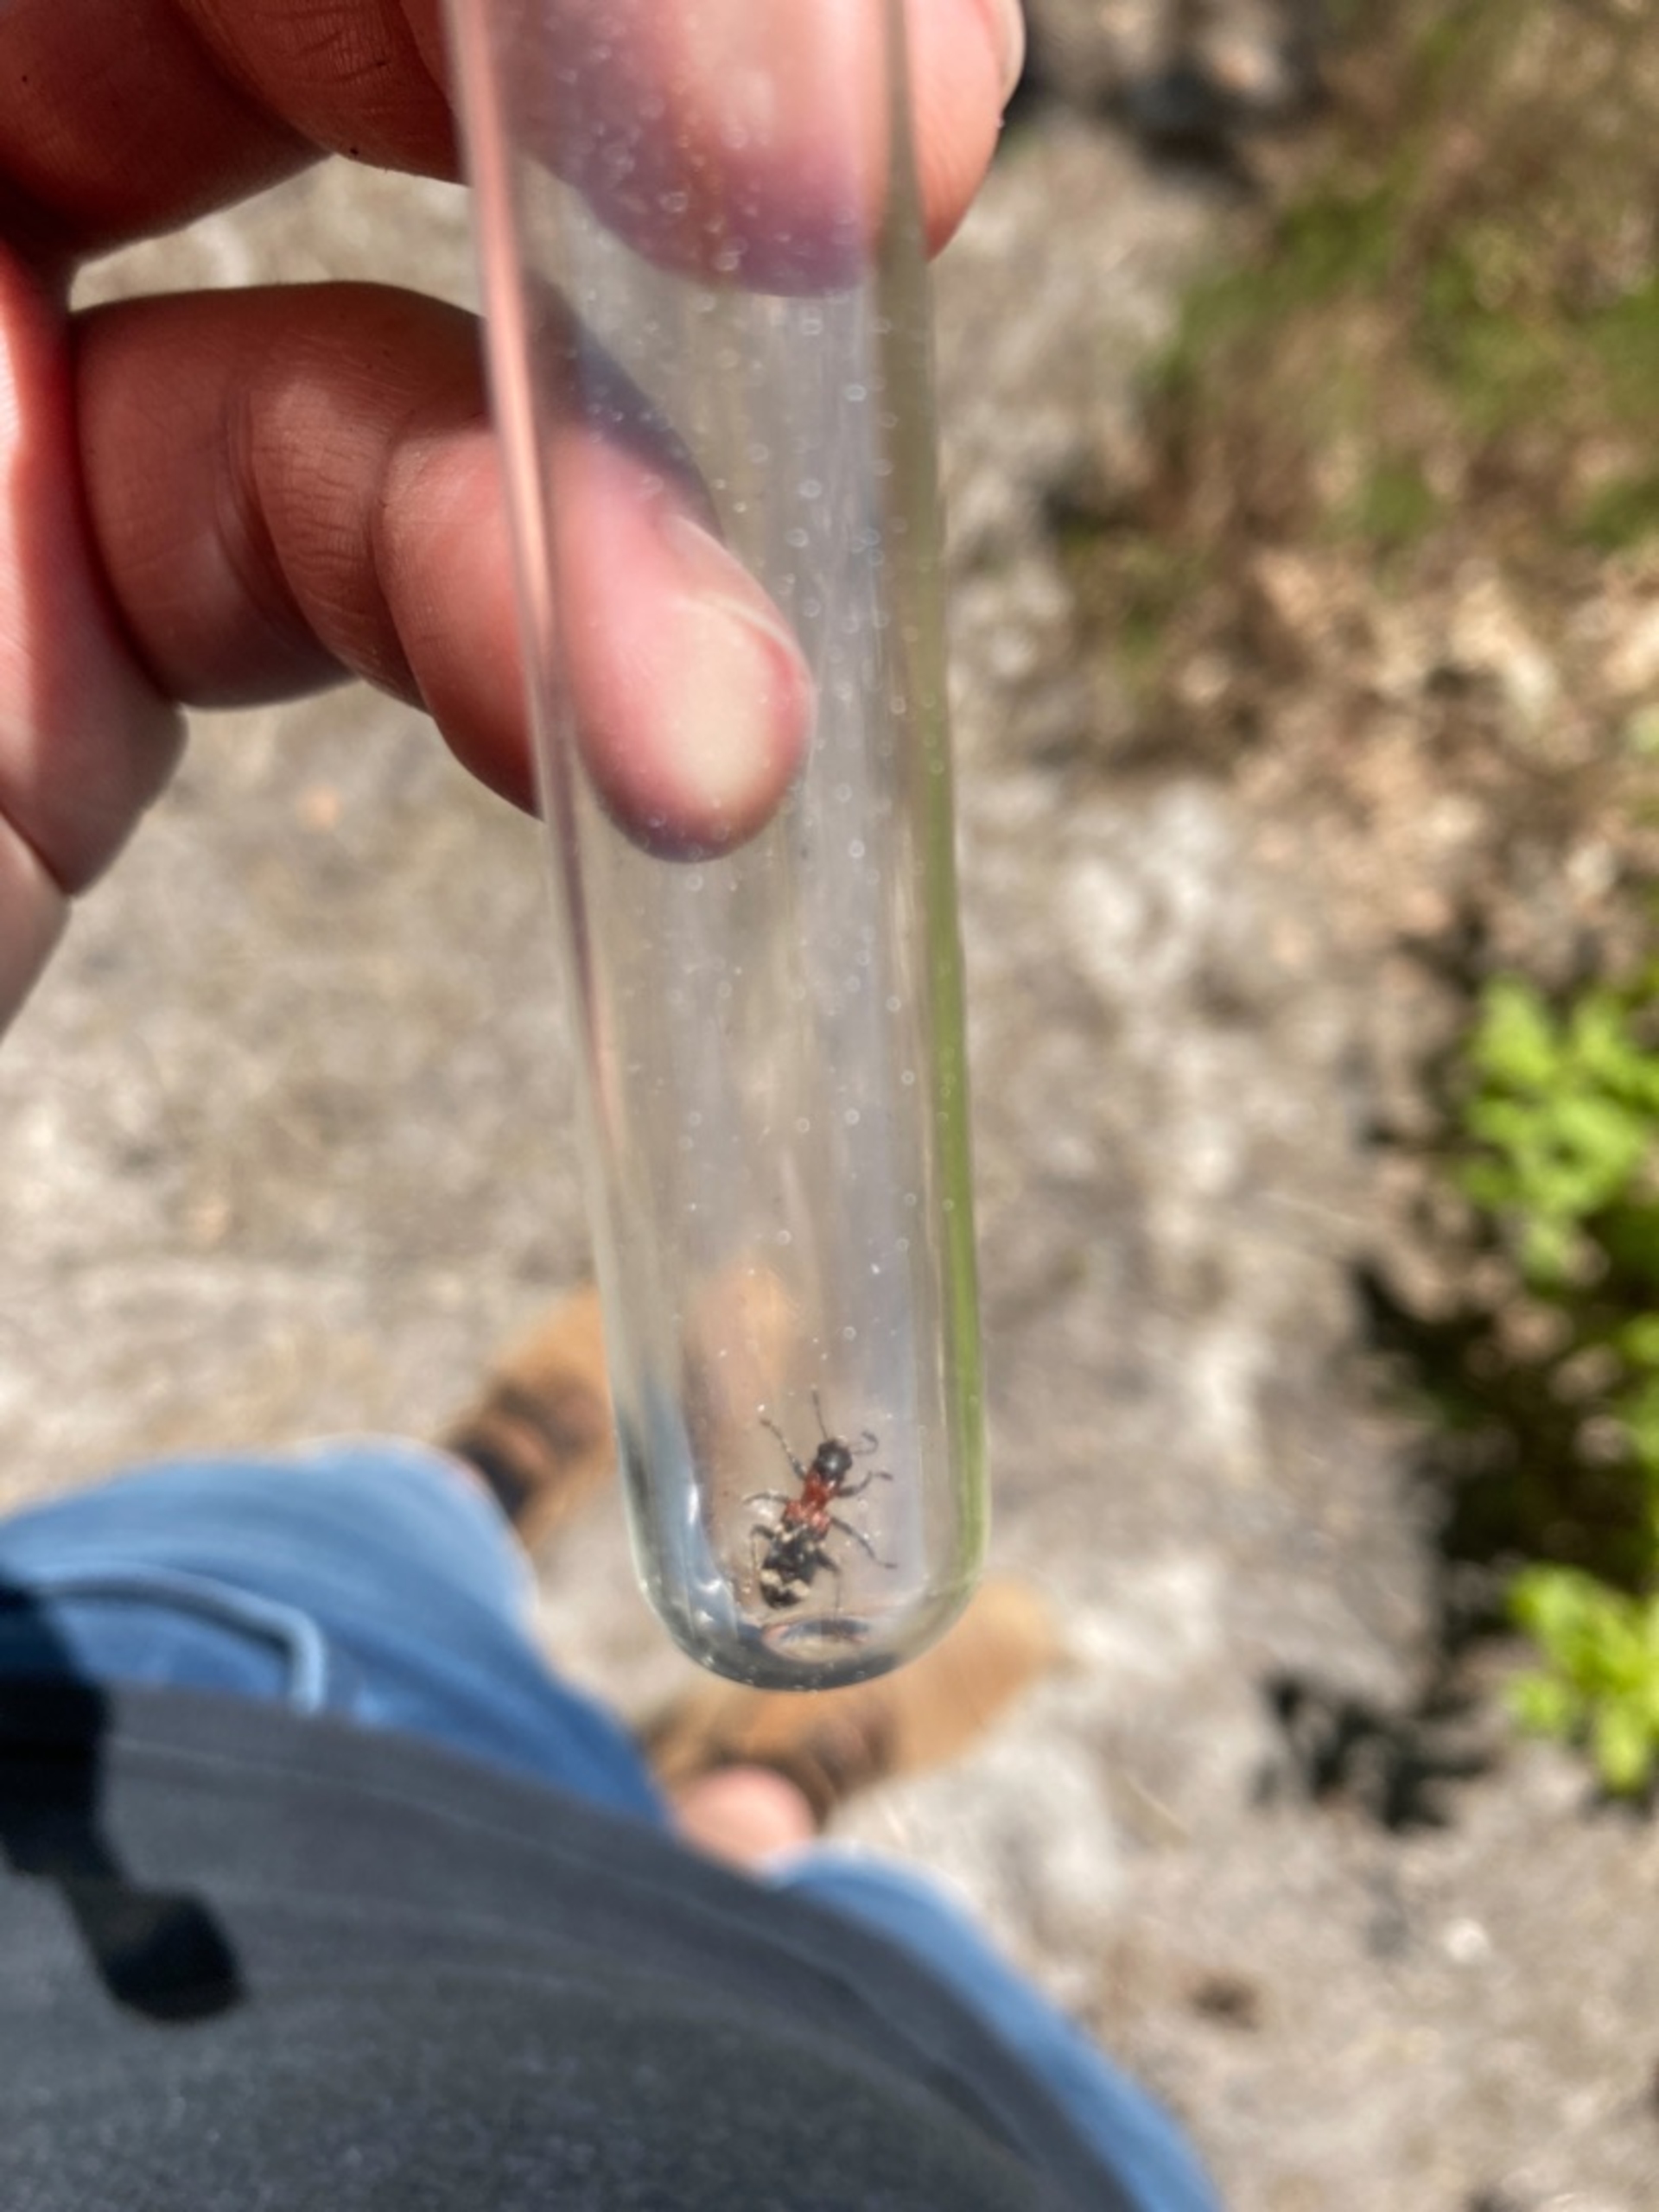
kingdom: Animalia
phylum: Arthropoda
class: Insecta
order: Coleoptera
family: Cleridae
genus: Thanasimus
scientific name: Thanasimus formicarius
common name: Myrebille
